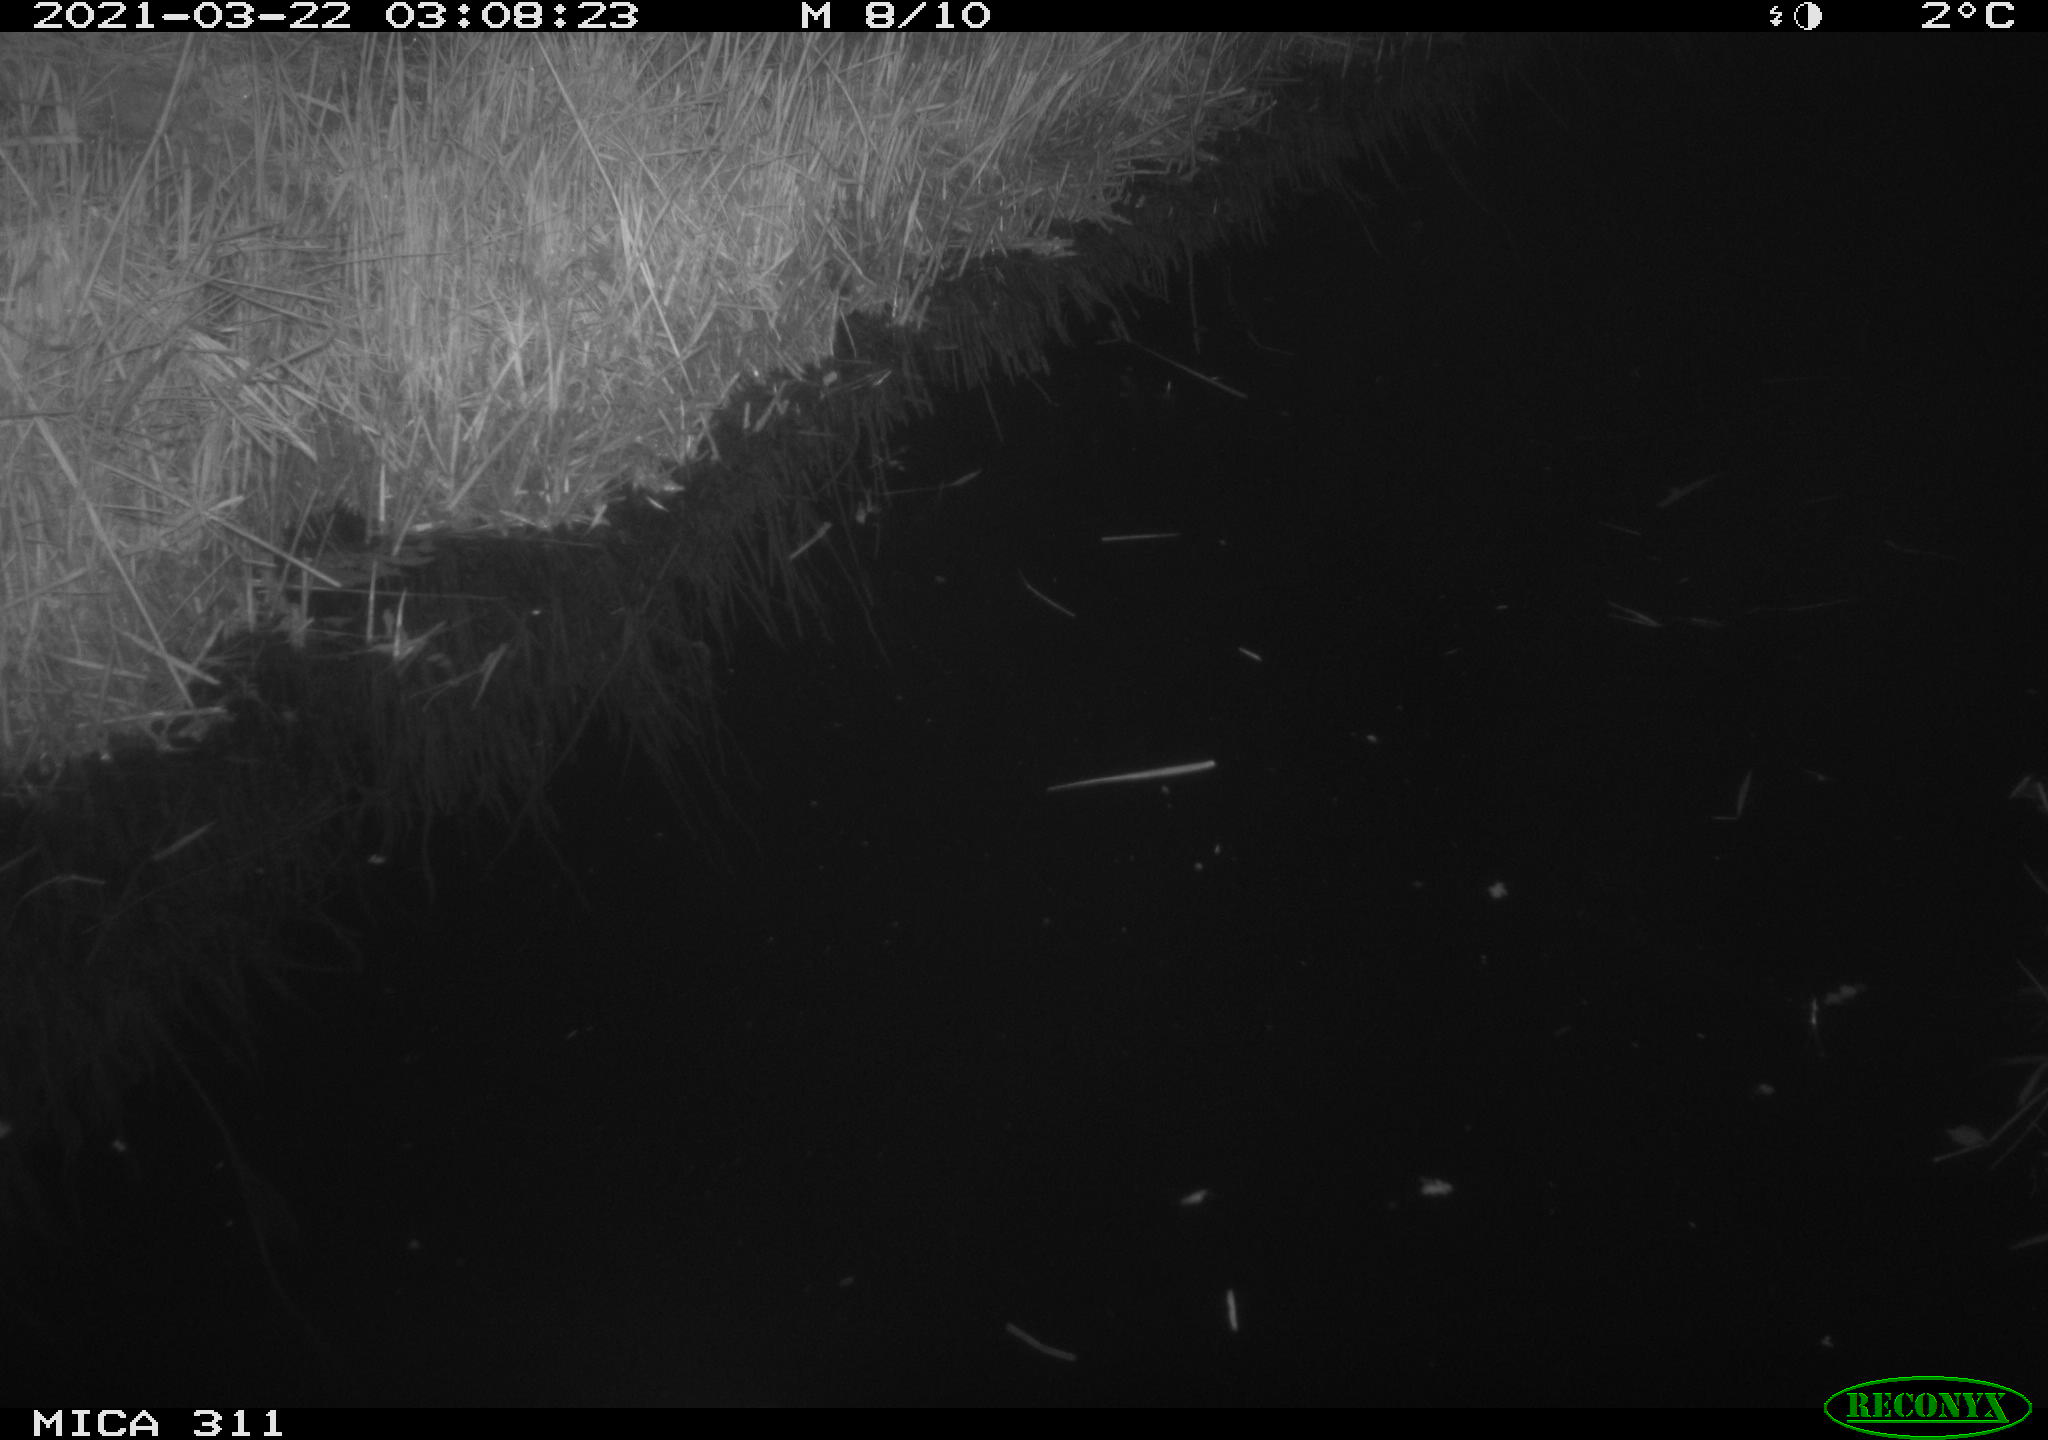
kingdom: Animalia
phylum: Chordata
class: Aves
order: Anseriformes
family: Anatidae
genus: Anas
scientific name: Anas
